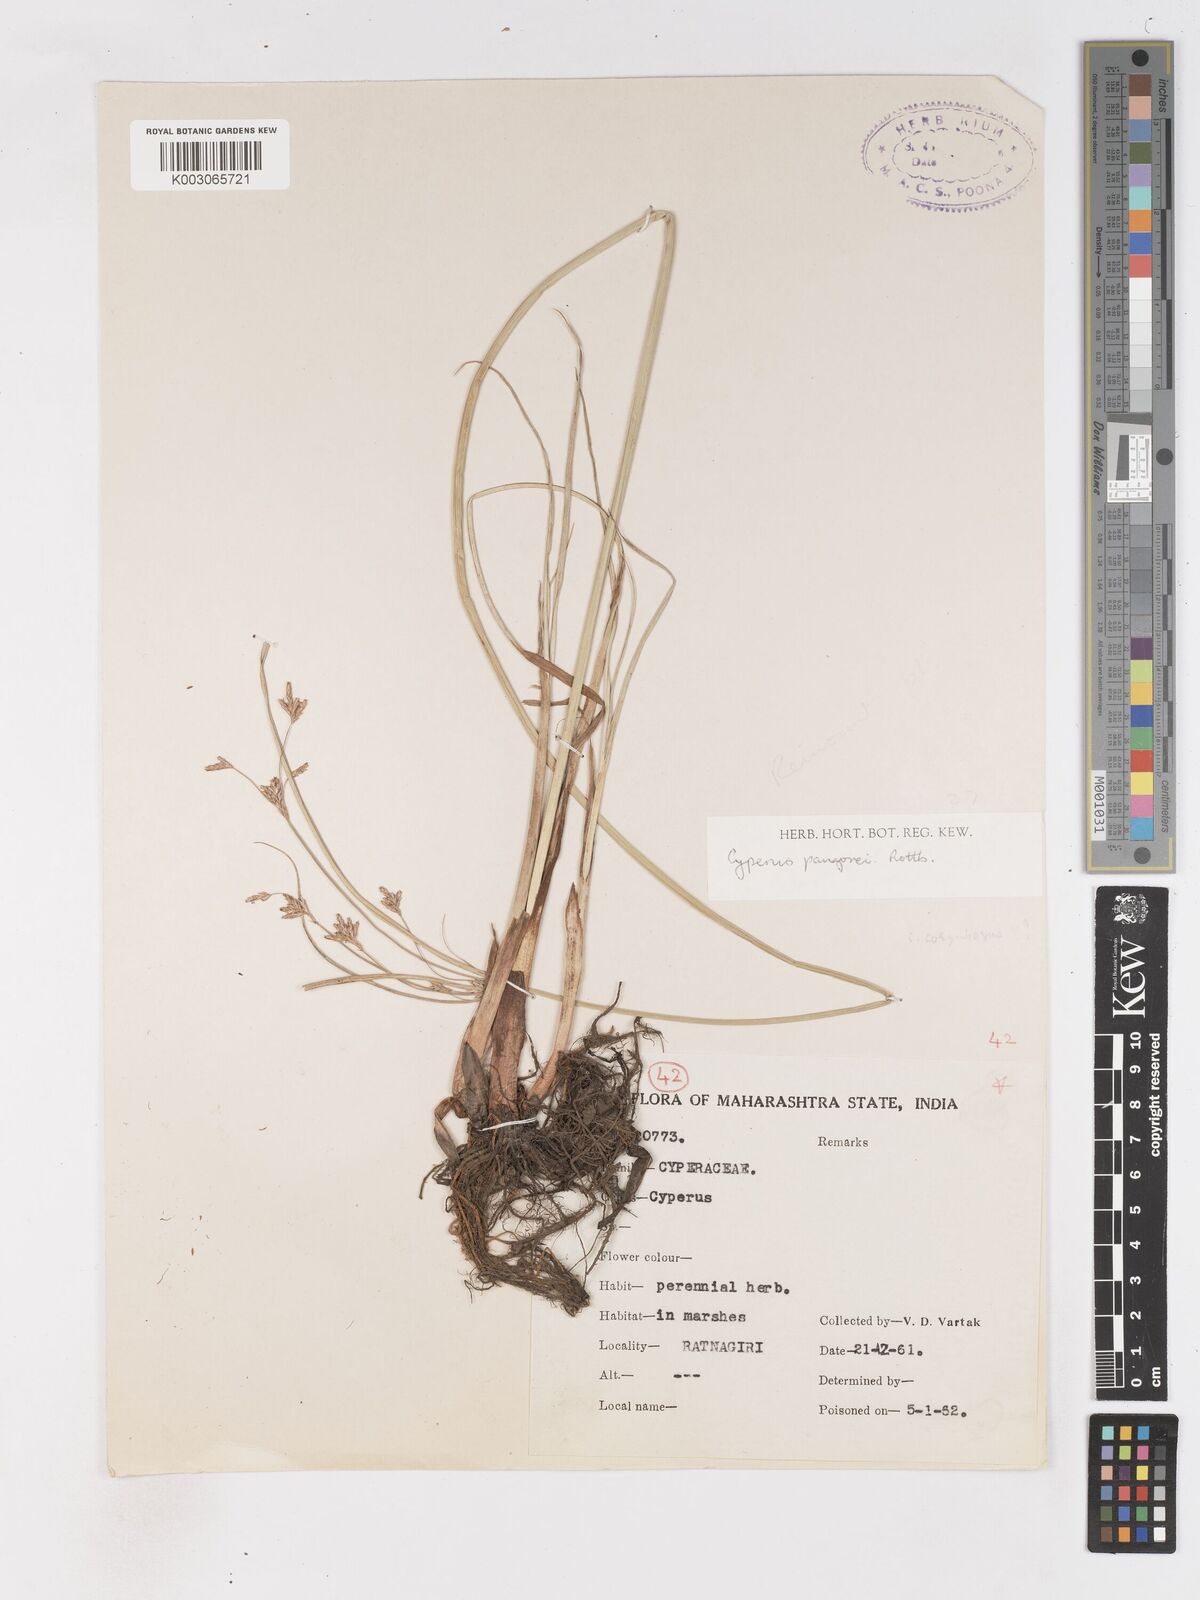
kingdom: Plantae
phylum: Tracheophyta
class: Liliopsida
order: Poales
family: Cyperaceae
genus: Cyperus
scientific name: Cyperus pangorei
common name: Mat sedge
